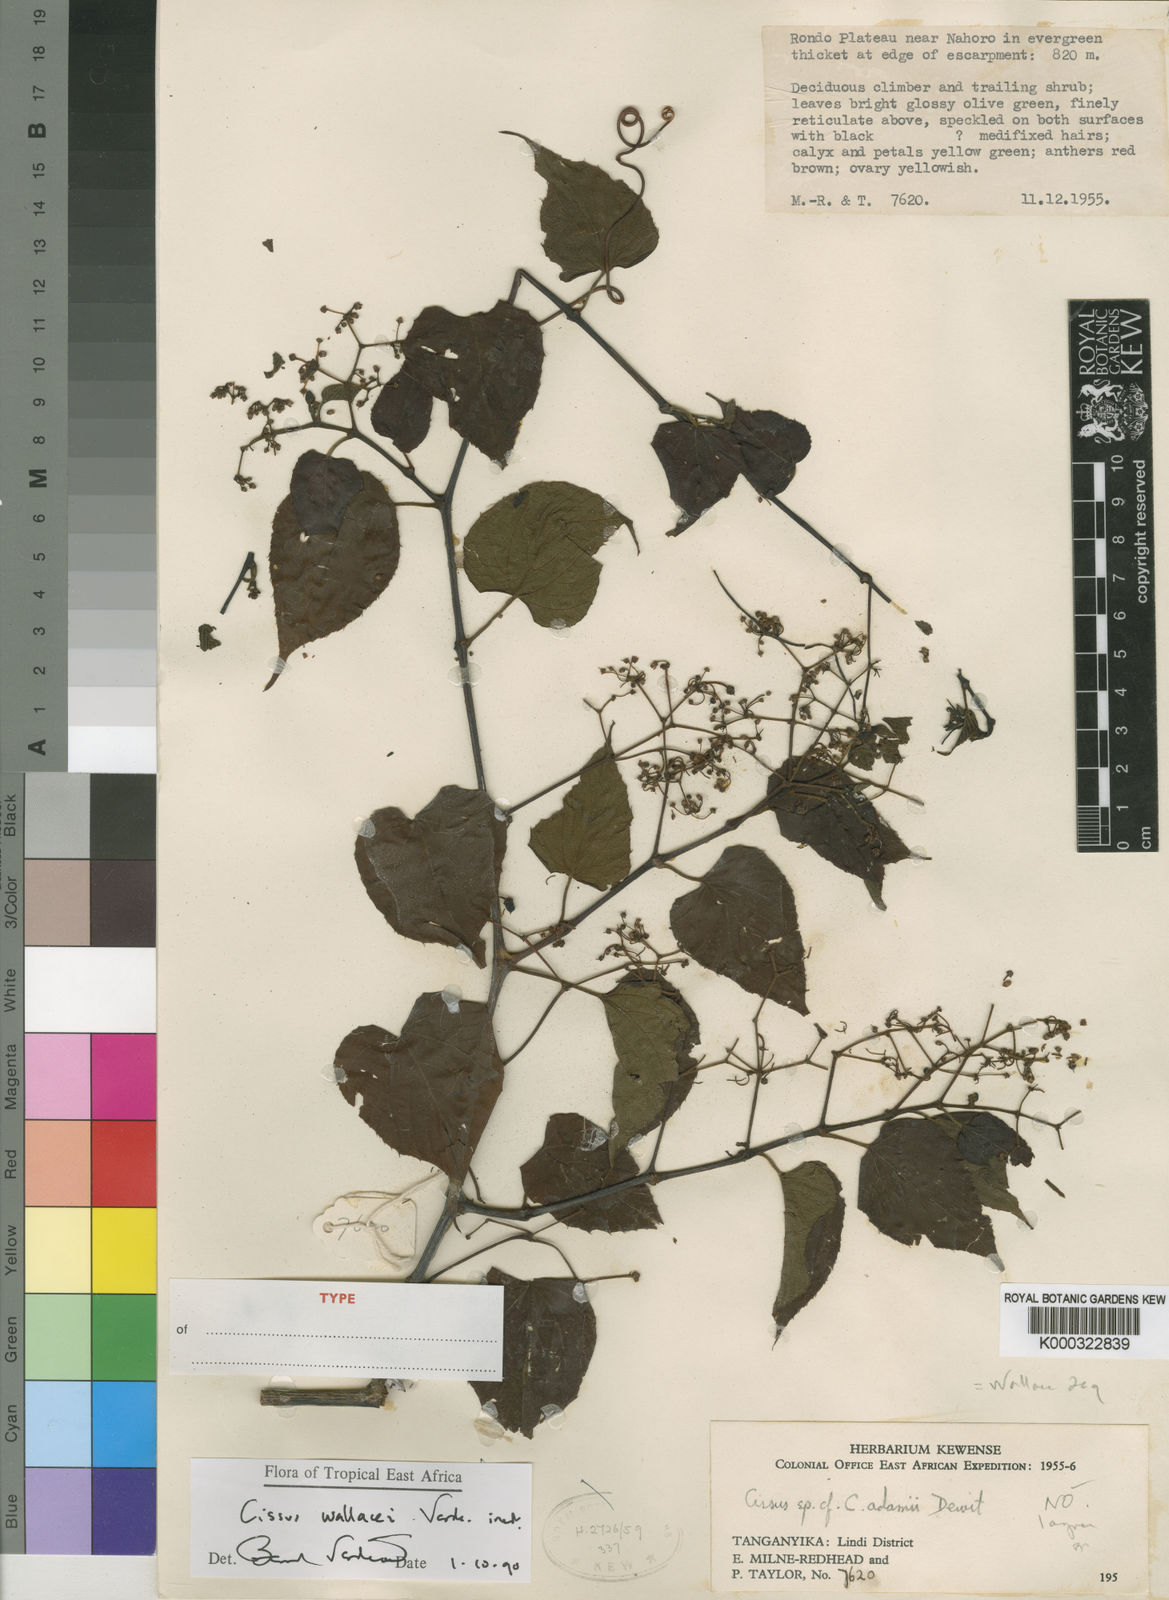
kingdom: Plantae
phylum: Tracheophyta
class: Magnoliopsida
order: Vitales
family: Vitaceae
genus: Cissus
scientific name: Cissus wallacei
